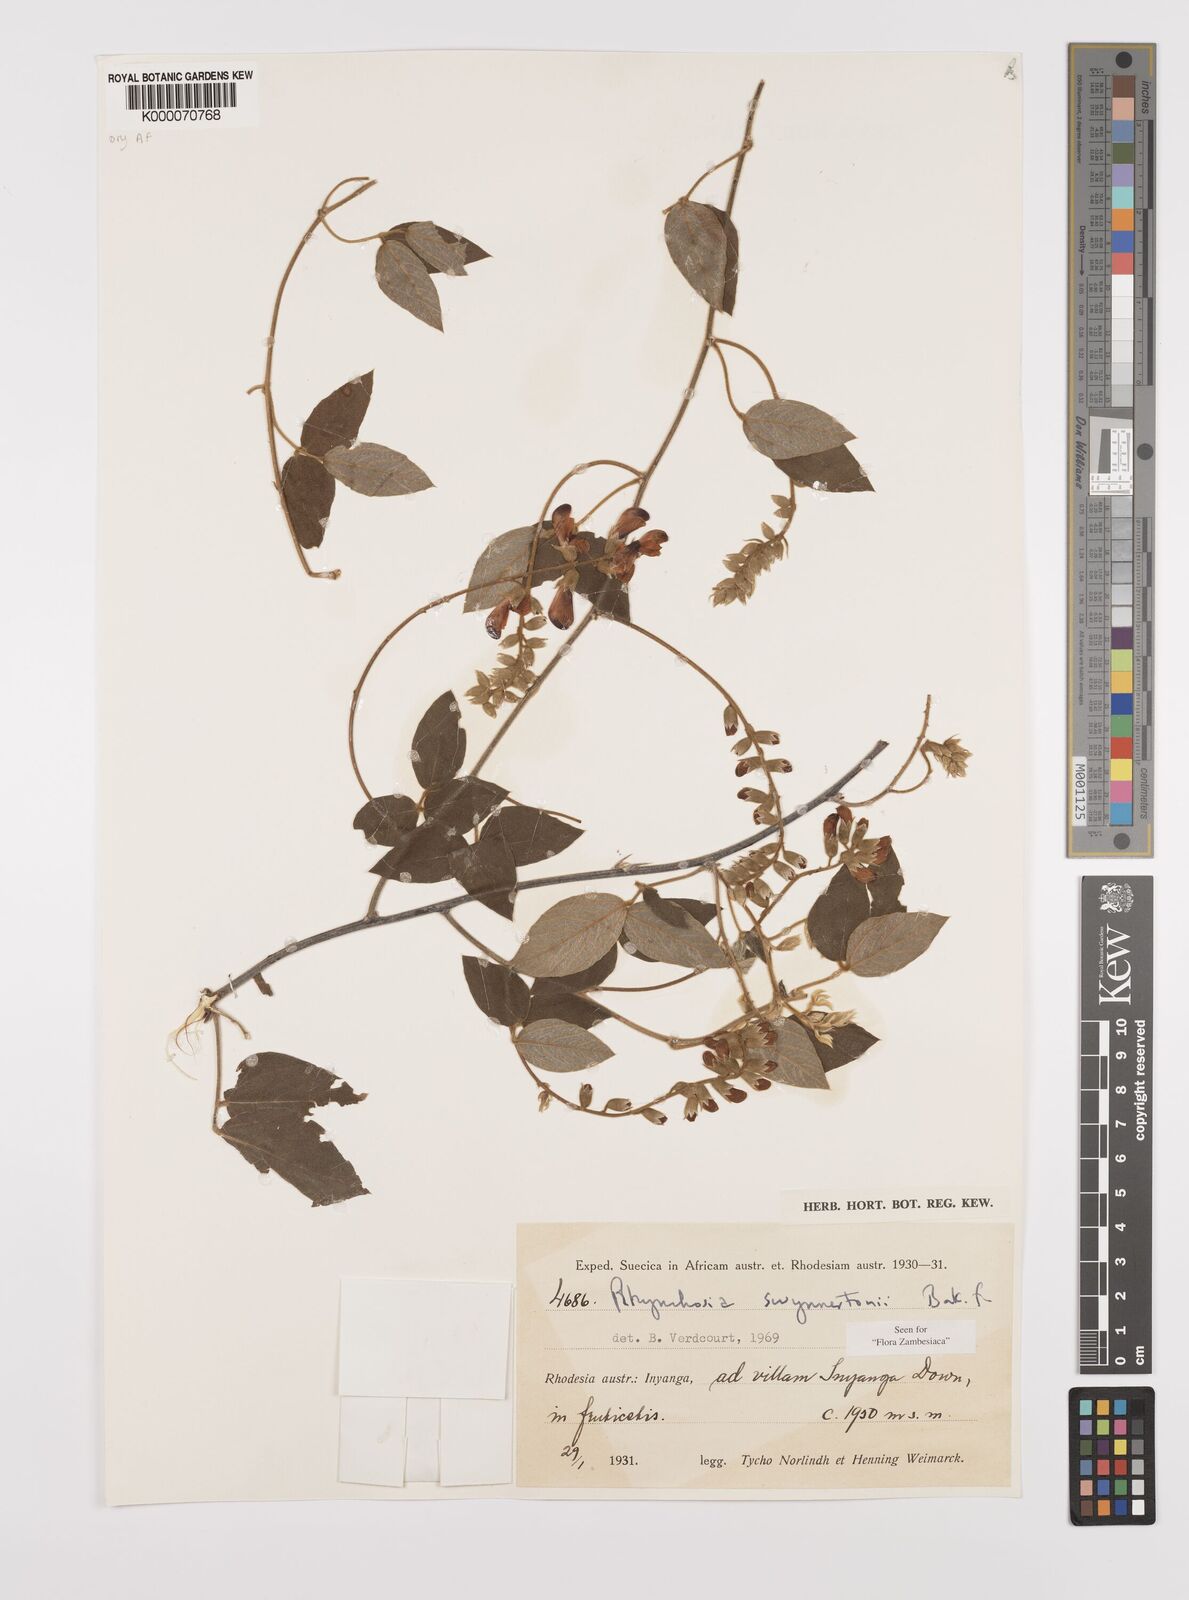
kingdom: Plantae
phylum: Tracheophyta
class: Magnoliopsida
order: Fabales
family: Fabaceae
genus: Rhynchosia
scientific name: Rhynchosia swynnertonii
